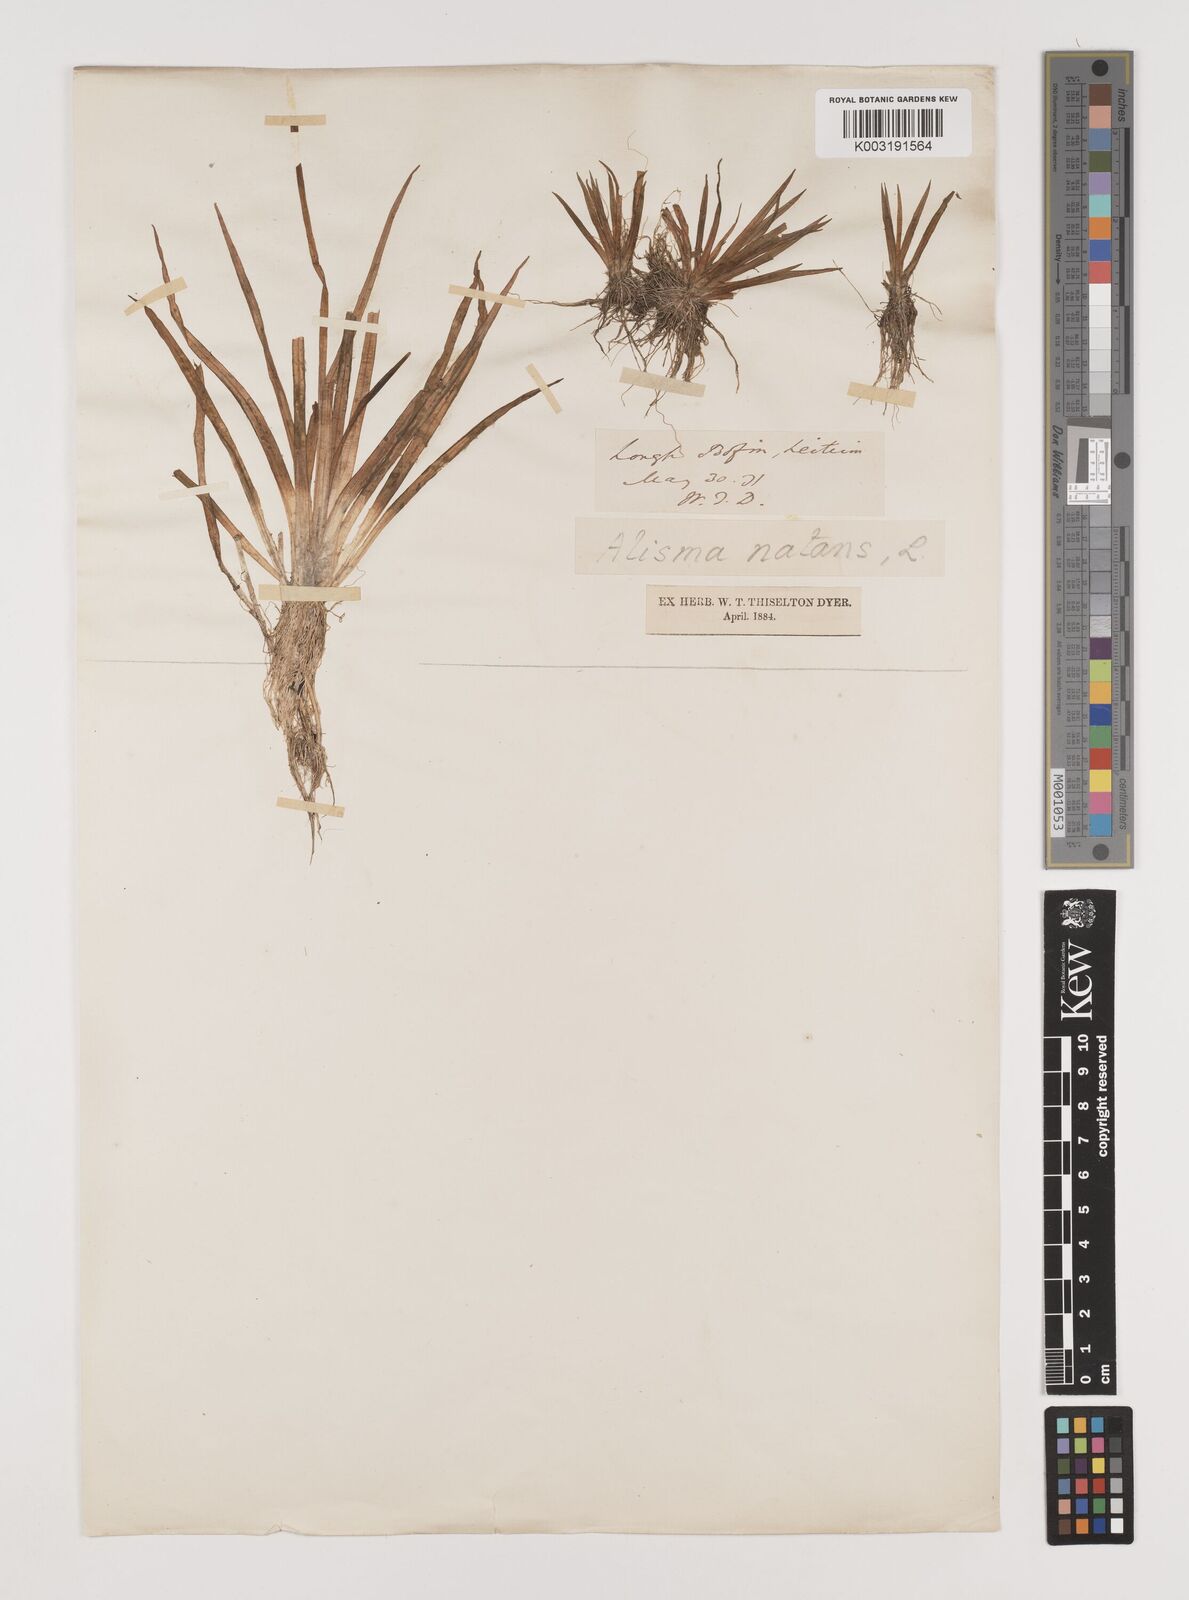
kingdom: Plantae
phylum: Tracheophyta
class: Liliopsida
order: Alismatales
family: Alismataceae
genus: Luronium
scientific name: Luronium natans
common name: Floating water-plantain
